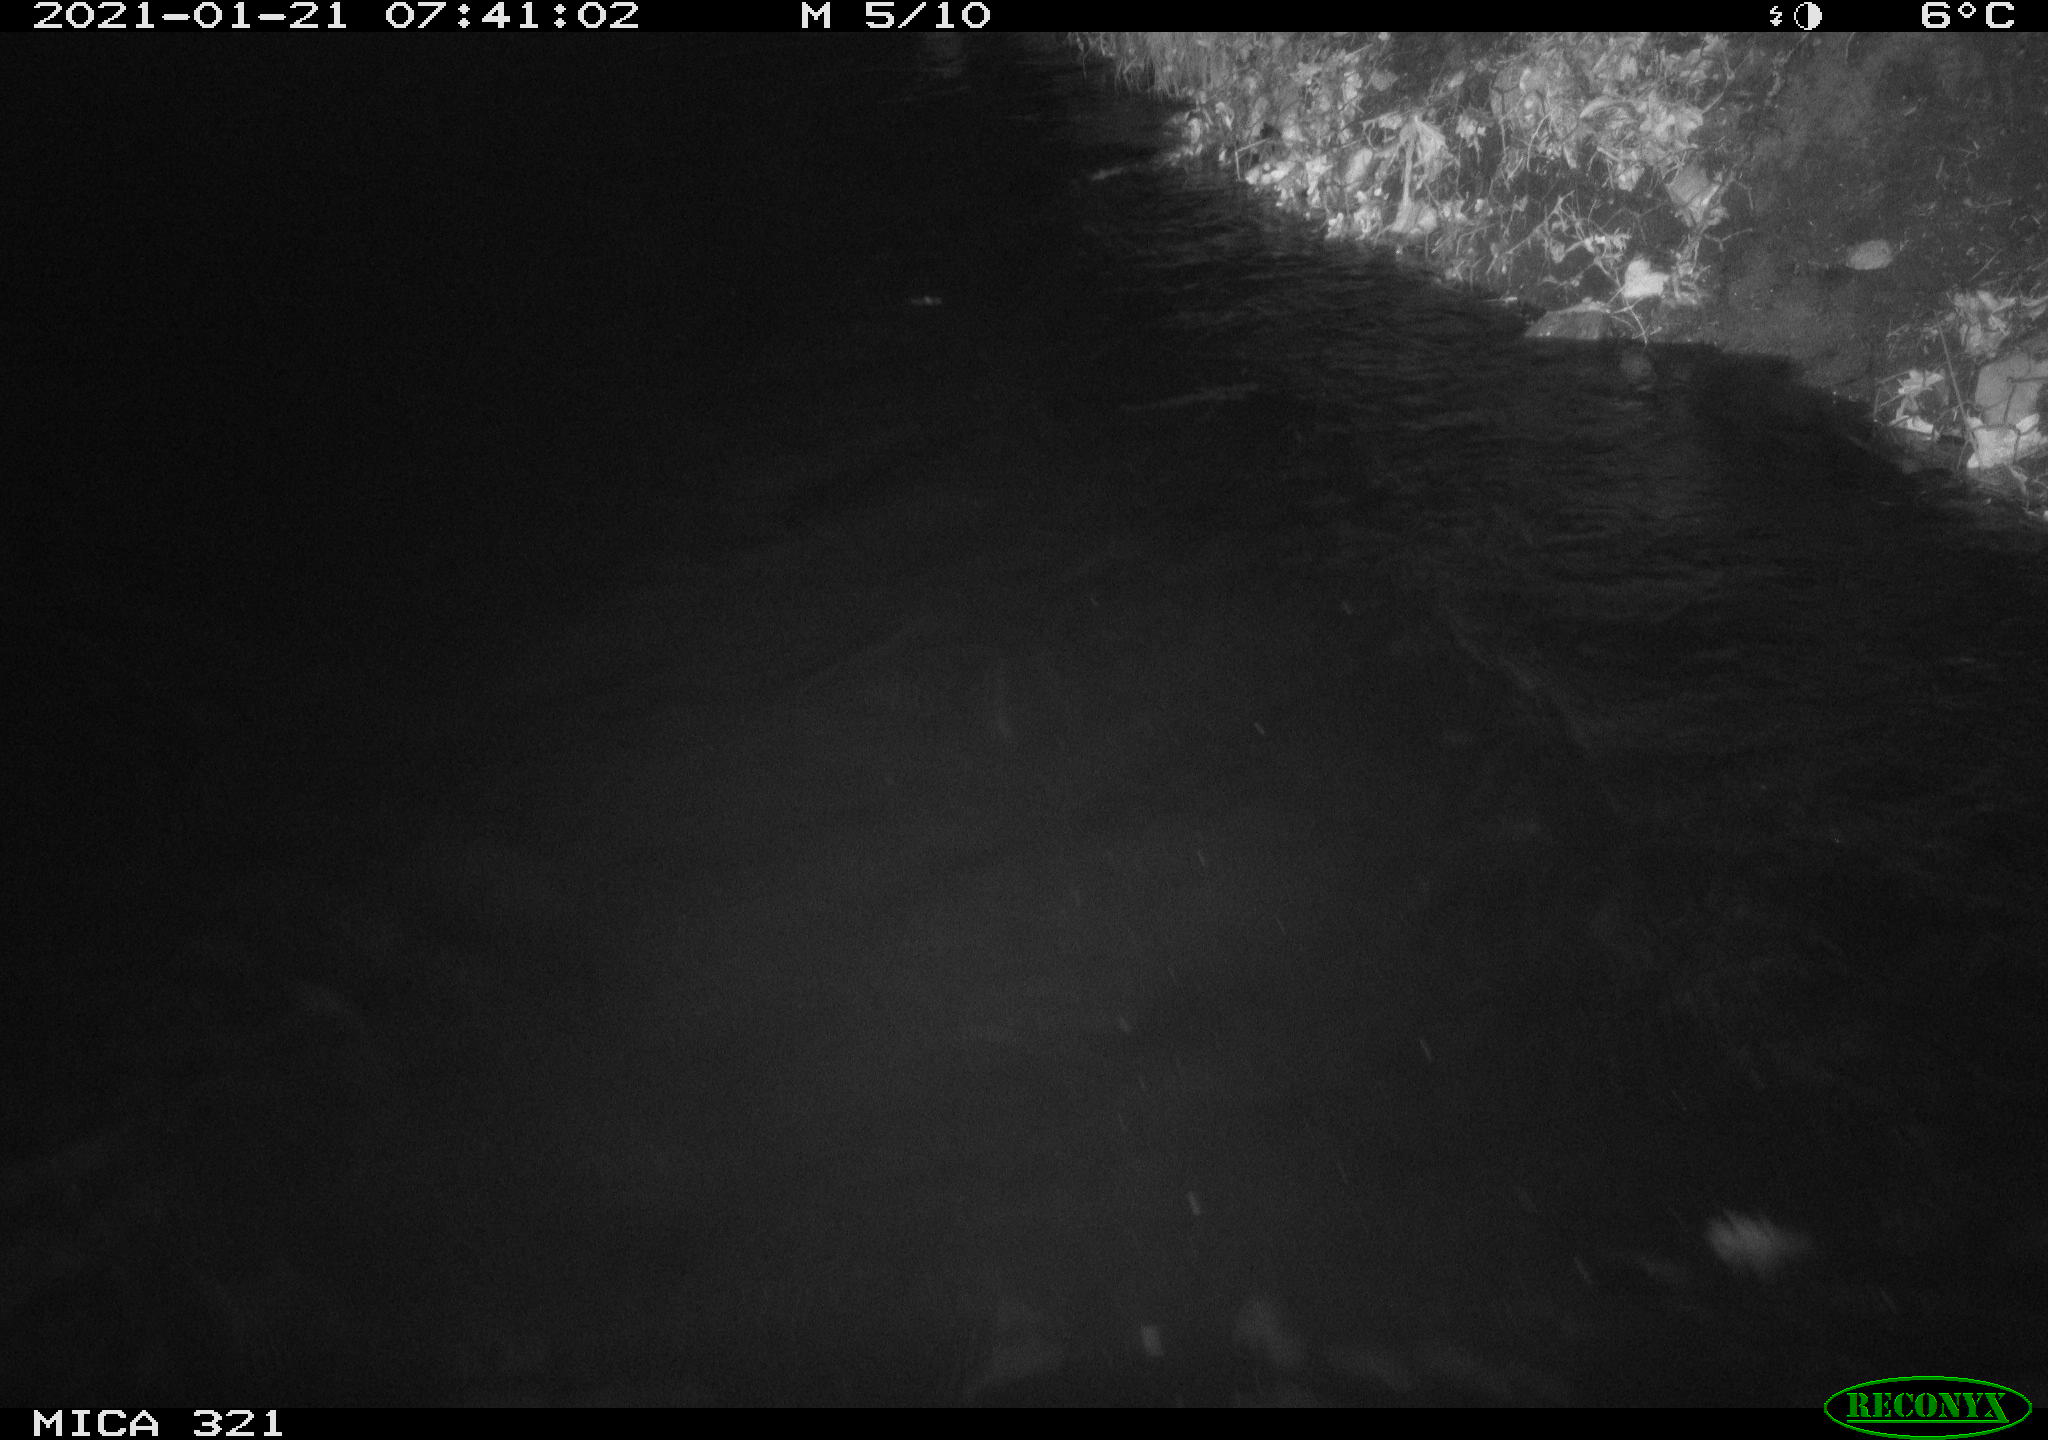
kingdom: Animalia
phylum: Chordata
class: Aves
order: Anseriformes
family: Anatidae
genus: Anas
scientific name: Anas platyrhynchos
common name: Mallard
